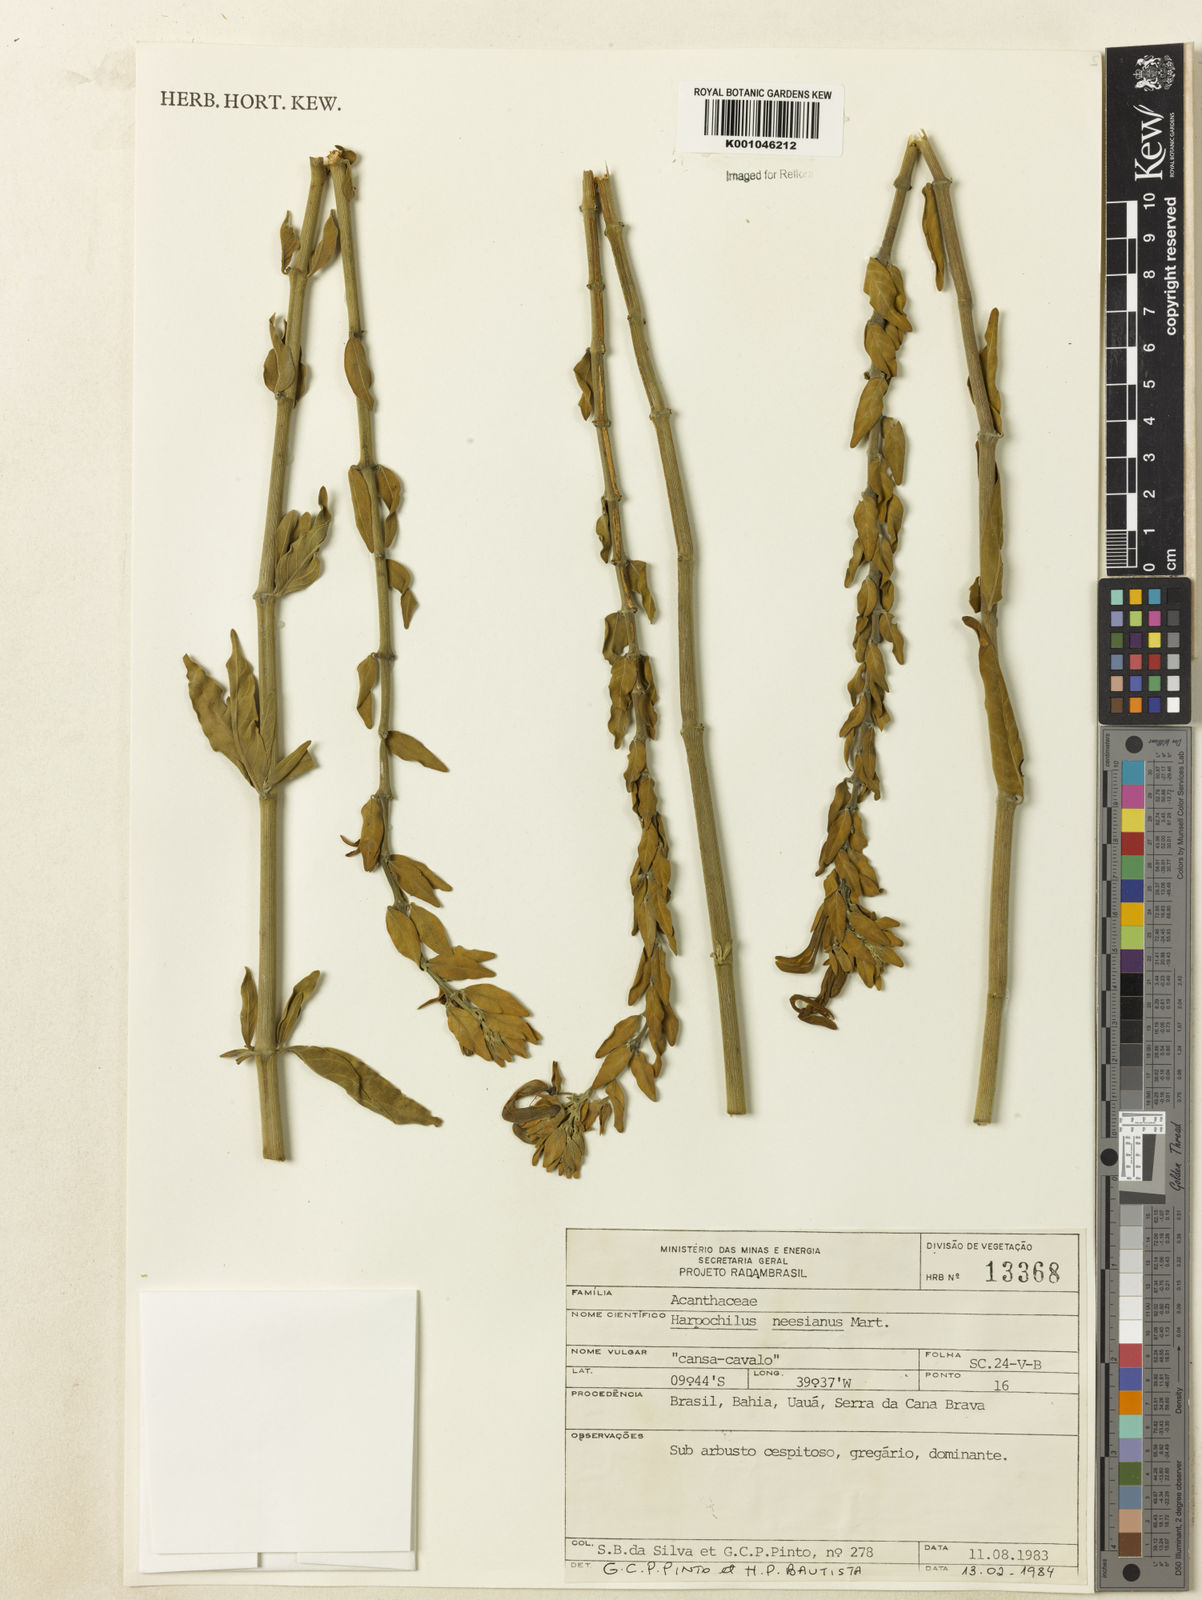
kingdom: Plantae
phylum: Tracheophyta
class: Magnoliopsida
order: Lamiales
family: Acanthaceae
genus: Harpochilus
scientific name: Harpochilus neesianus
